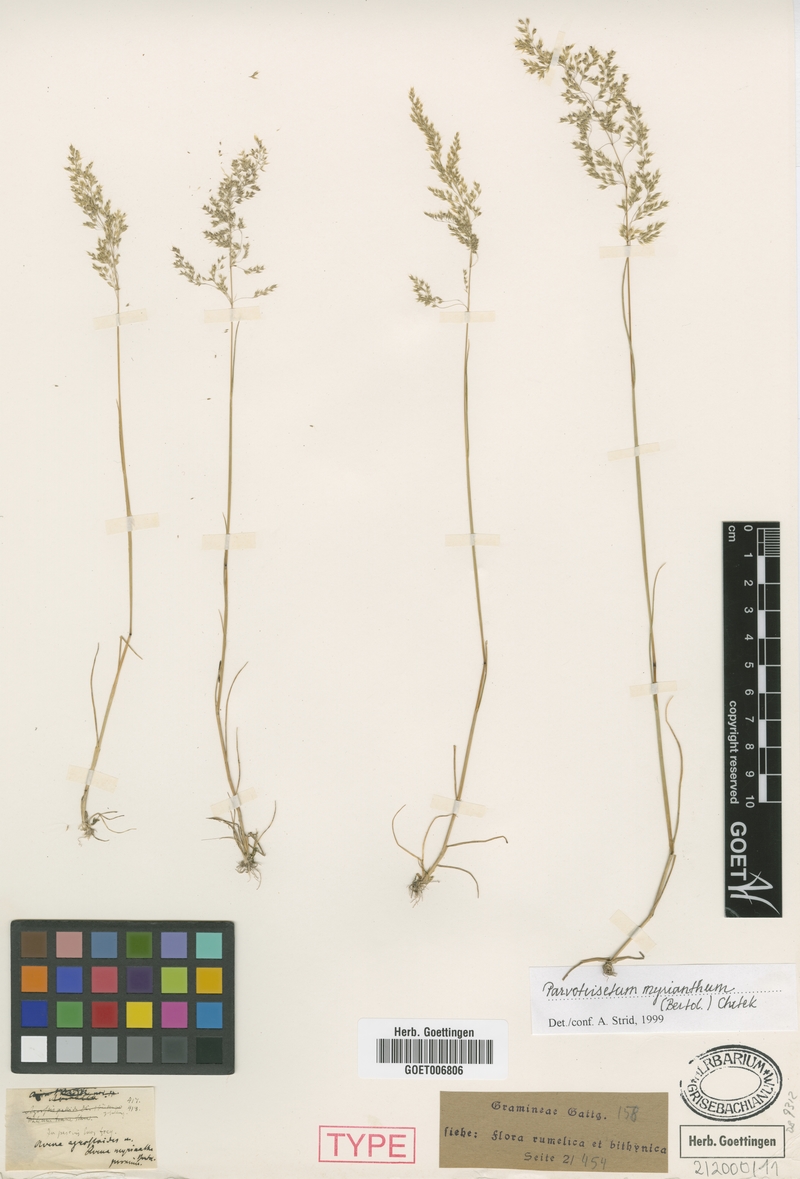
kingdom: Plantae
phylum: Tracheophyta
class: Liliopsida
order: Poales
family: Poaceae
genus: Parvotrisetum
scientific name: Parvotrisetum myrianthum
